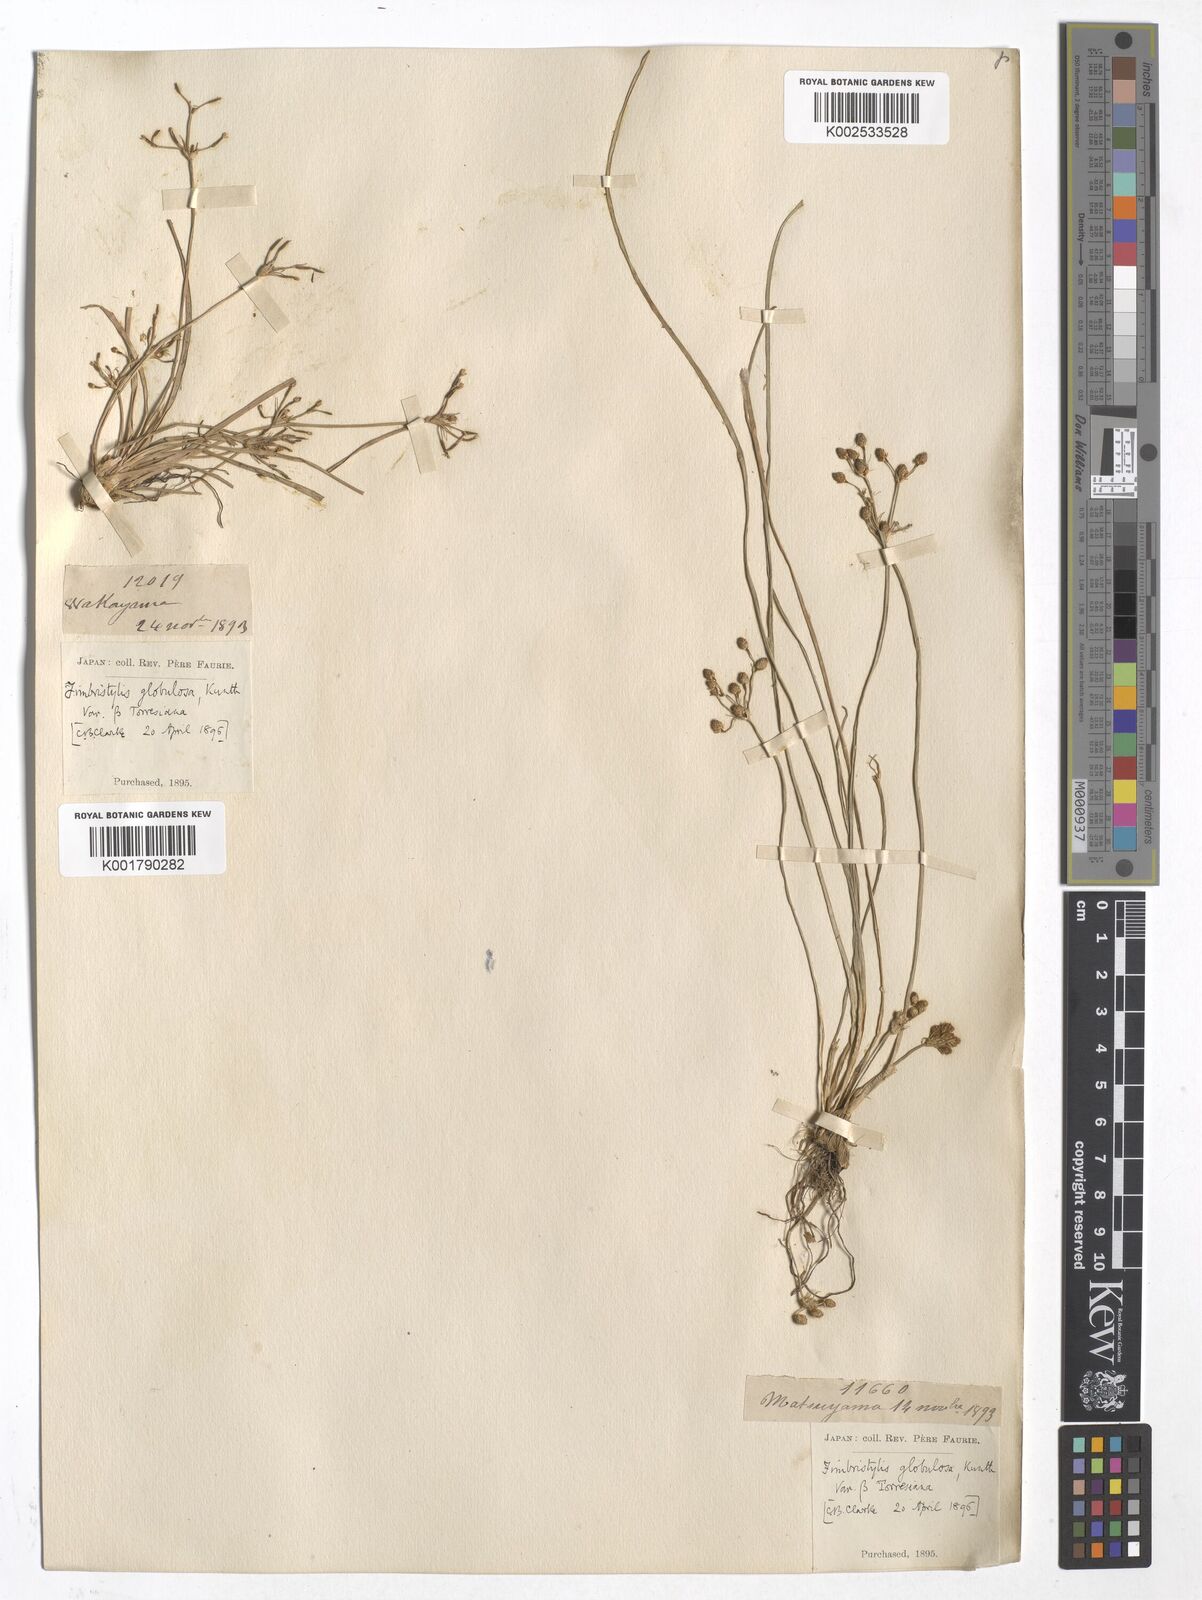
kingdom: Plantae
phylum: Tracheophyta
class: Liliopsida
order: Poales
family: Cyperaceae
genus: Fimbristylis
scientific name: Fimbristylis umbellaris
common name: Globular fimbristylis
